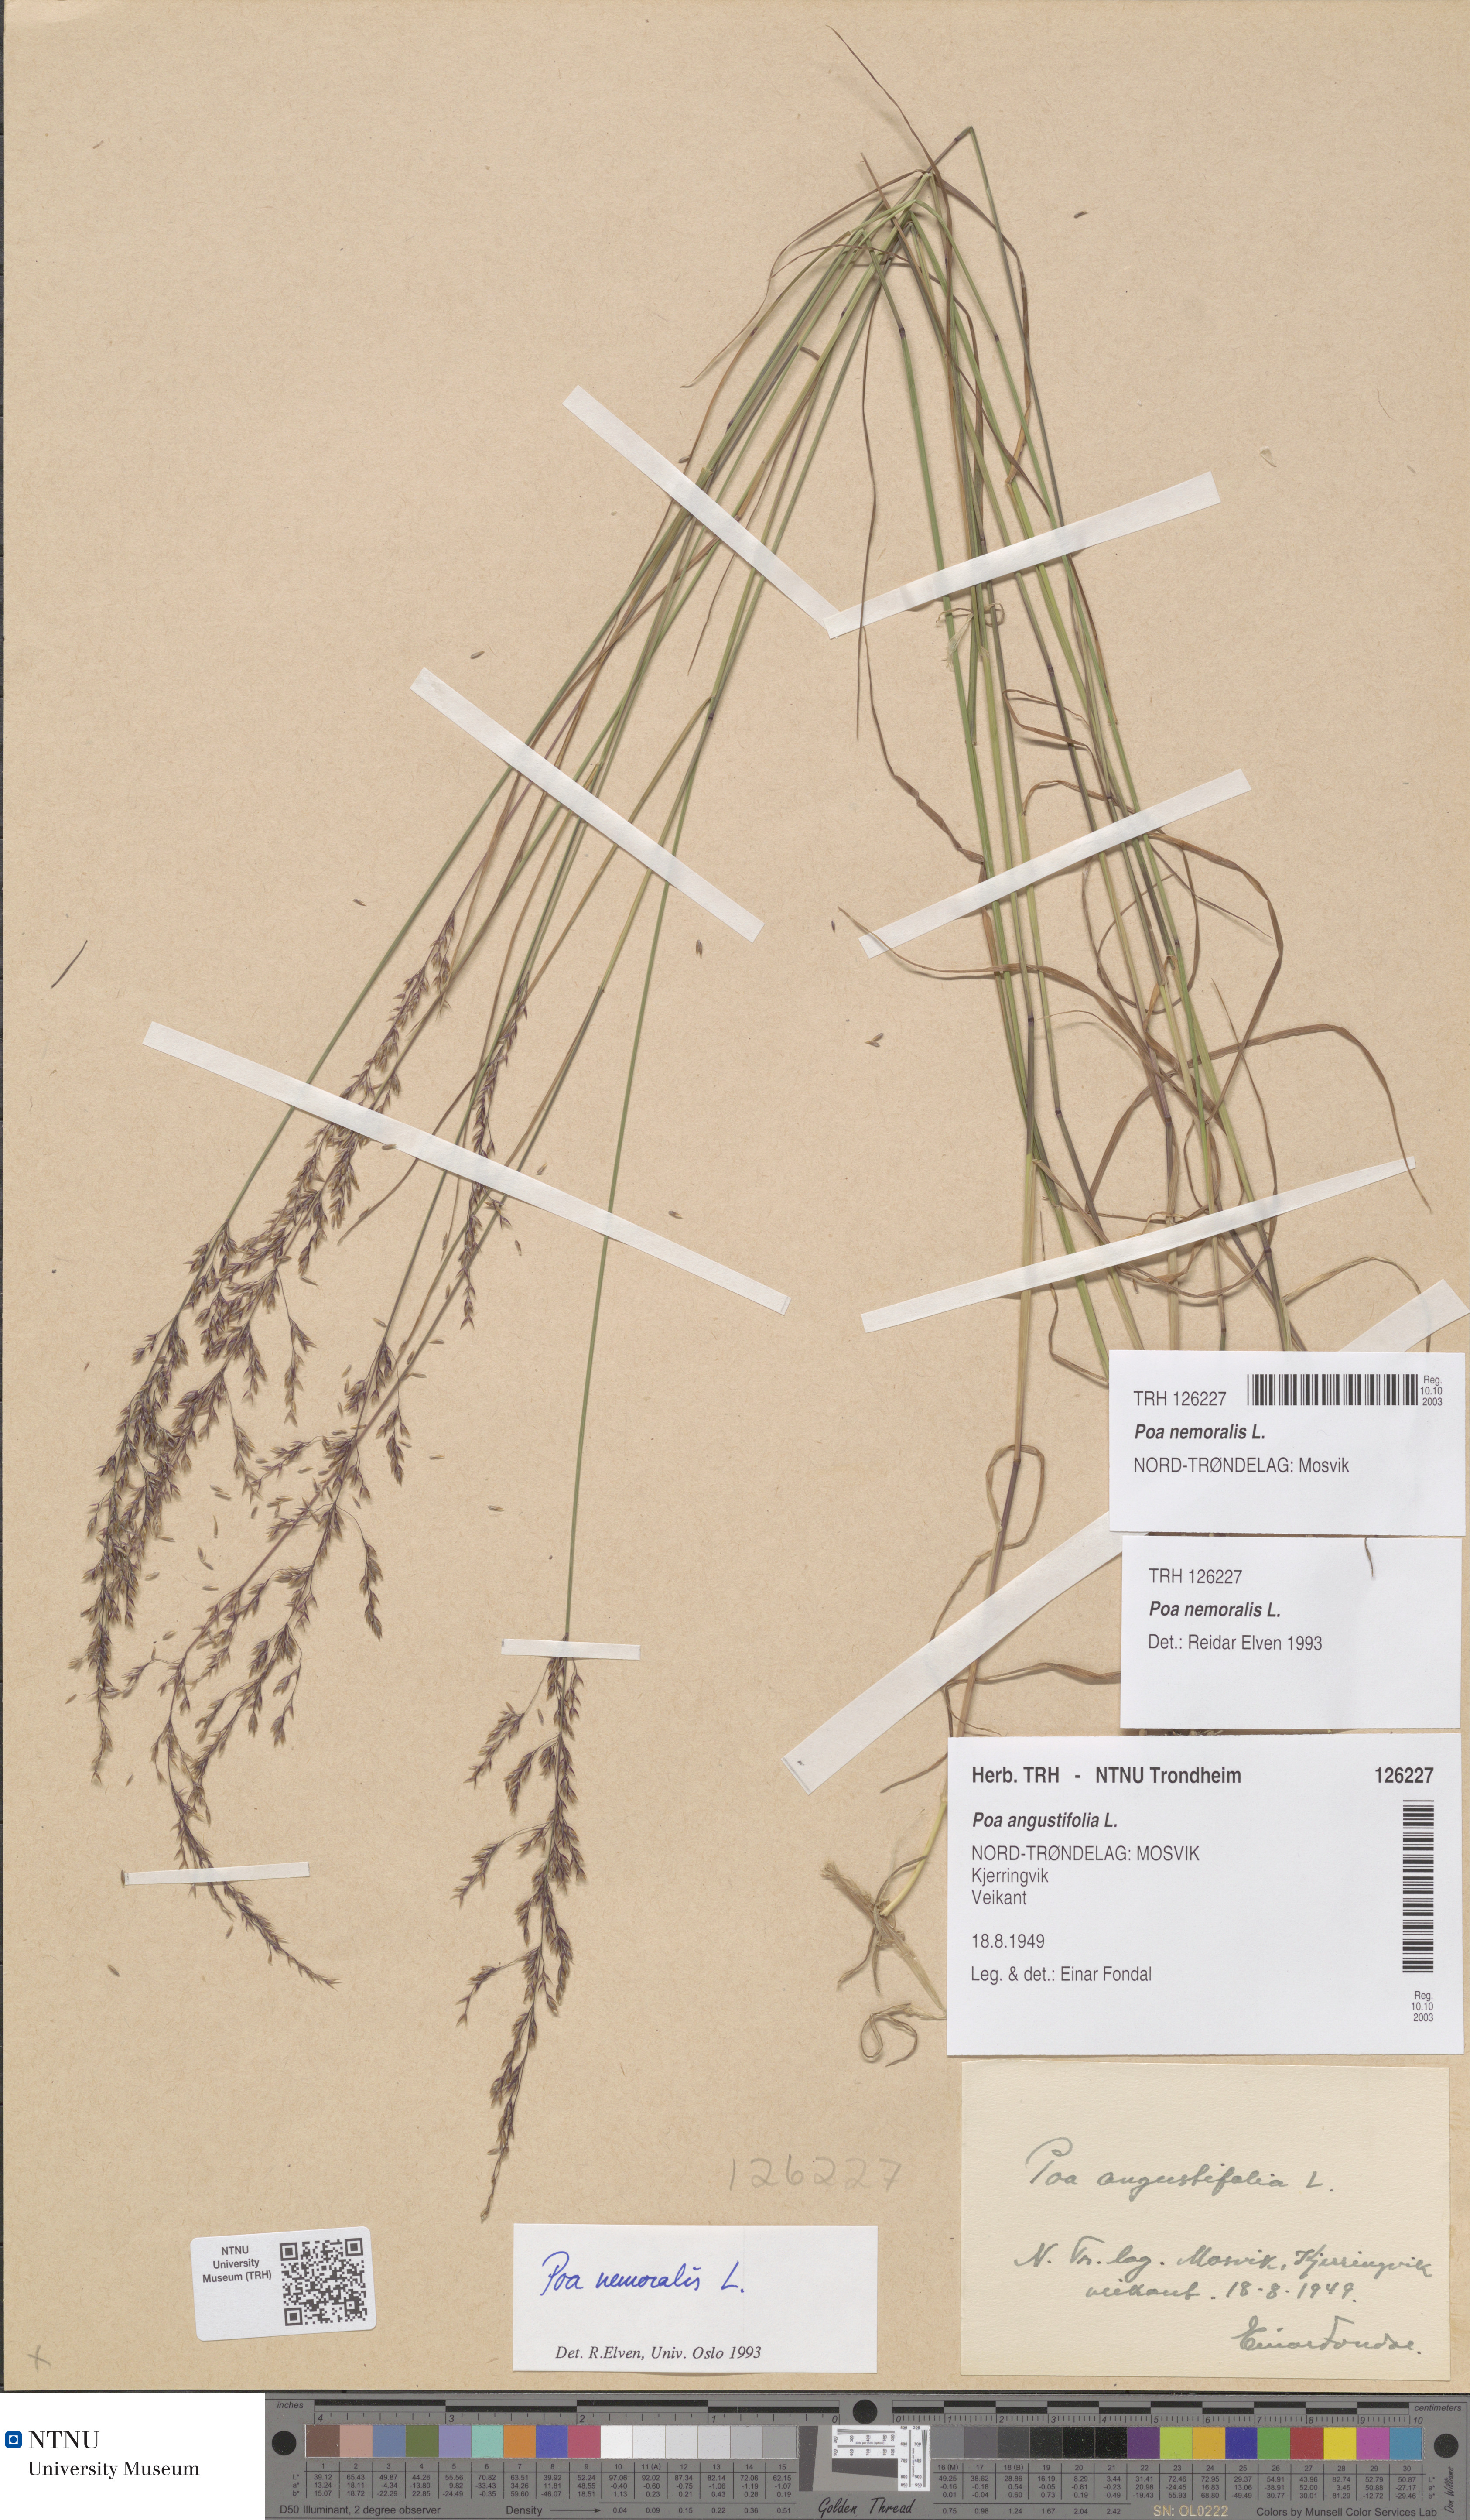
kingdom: Plantae
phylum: Tracheophyta
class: Liliopsida
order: Poales
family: Poaceae
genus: Poa
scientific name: Poa nemoralis
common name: Wood bluegrass
